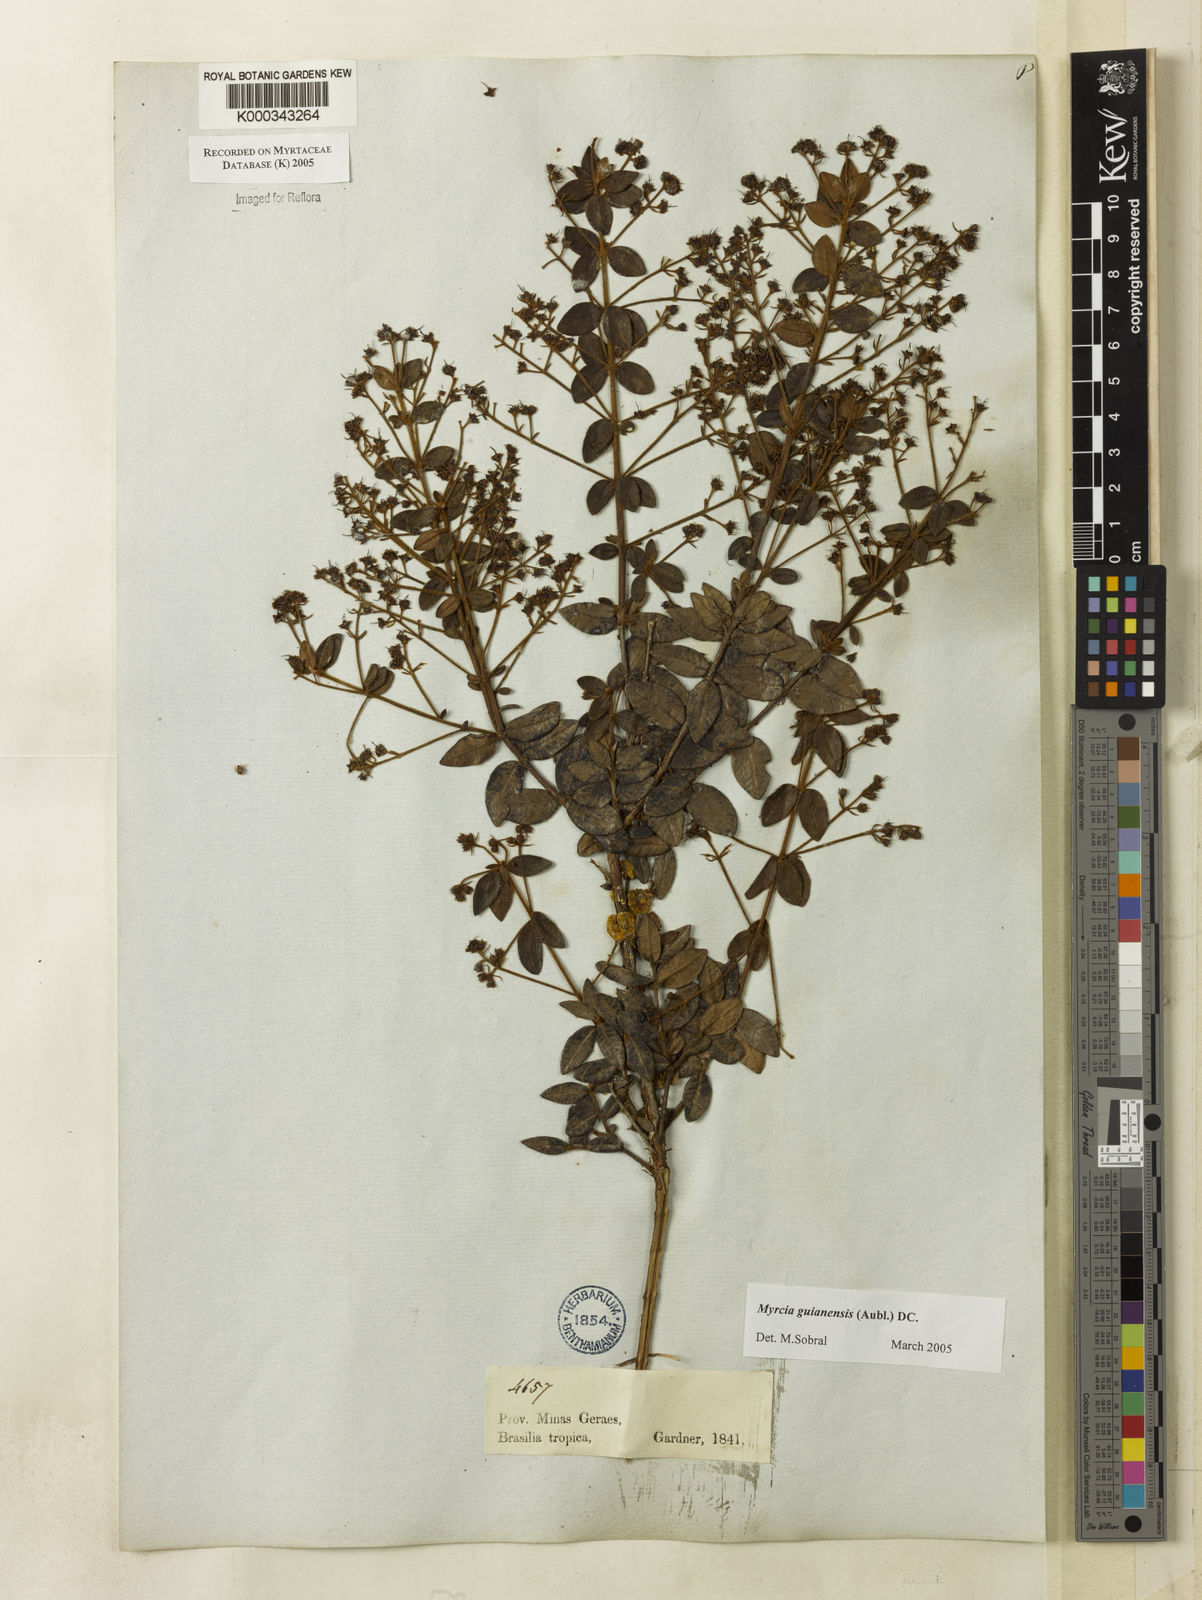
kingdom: Plantae
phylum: Tracheophyta
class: Magnoliopsida
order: Myrtales
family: Myrtaceae
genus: Myrcia
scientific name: Myrcia guianensis
